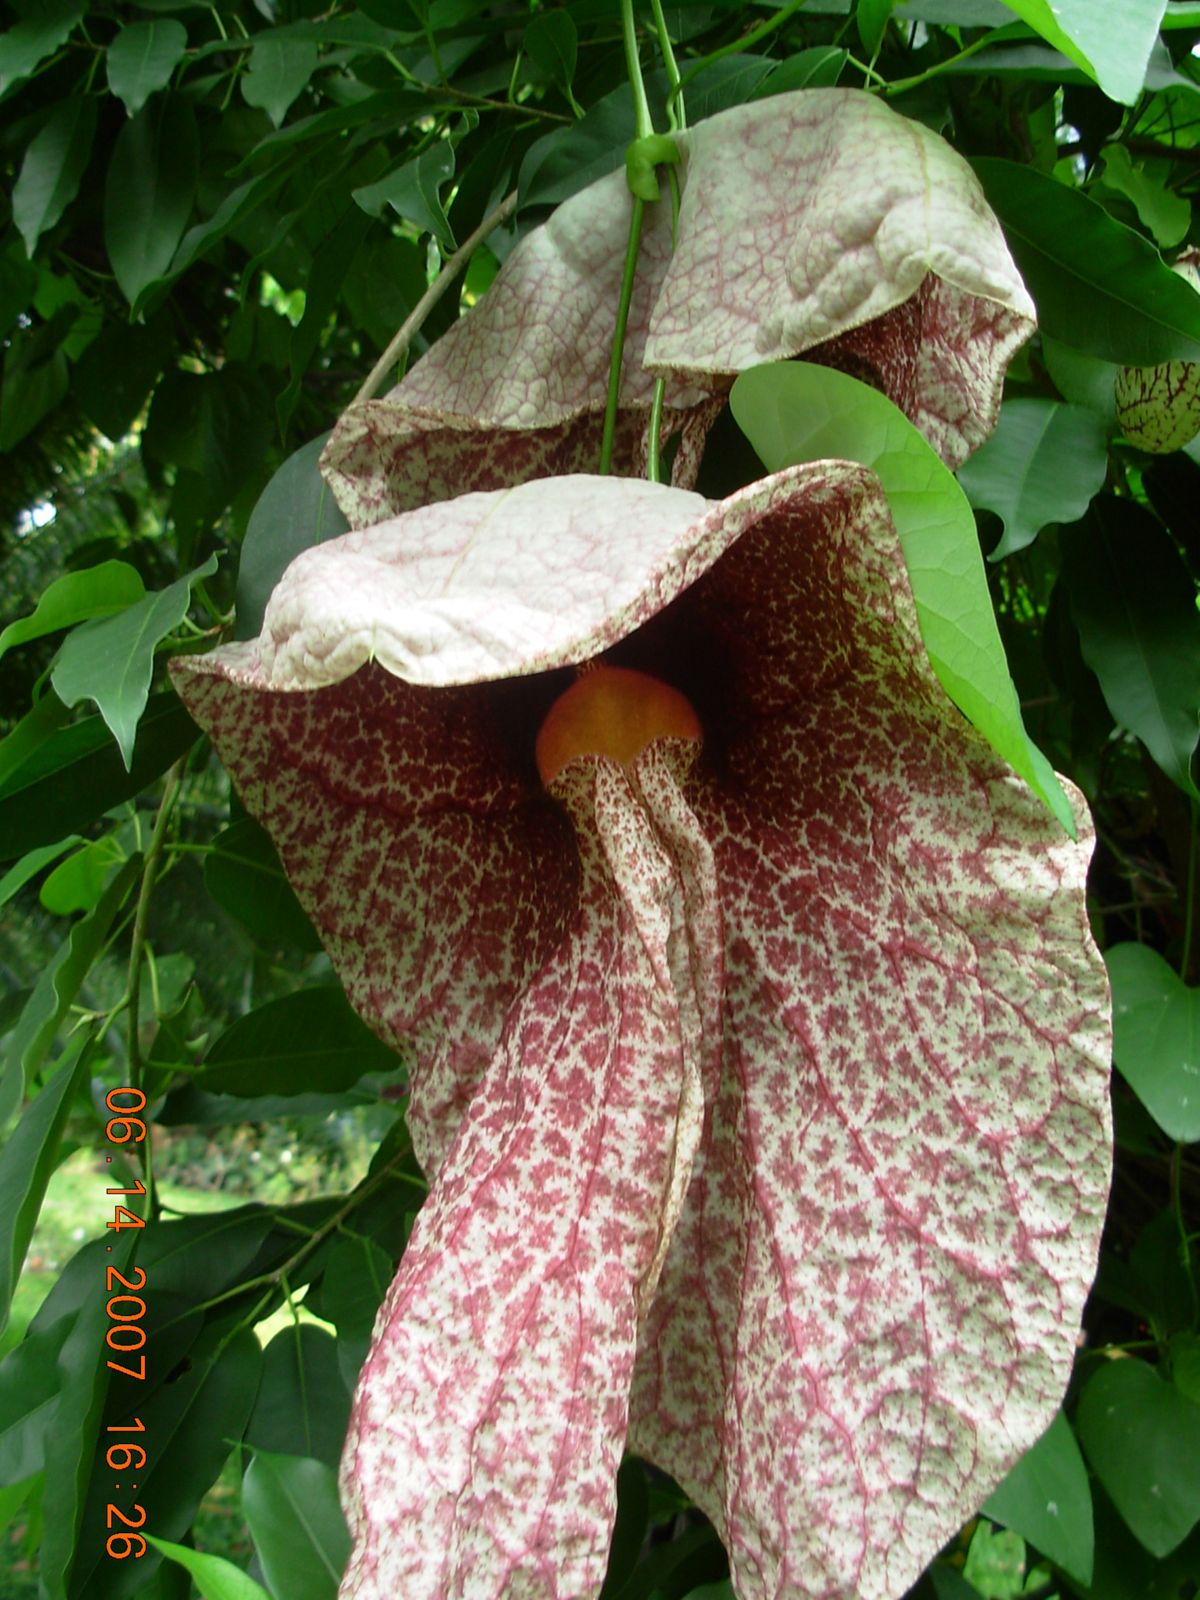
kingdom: Plantae
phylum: Tracheophyta
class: Magnoliopsida
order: Piperales
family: Aristolochiaceae
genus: Aristolochia
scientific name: Aristolochia gigantea
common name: Duckflower
